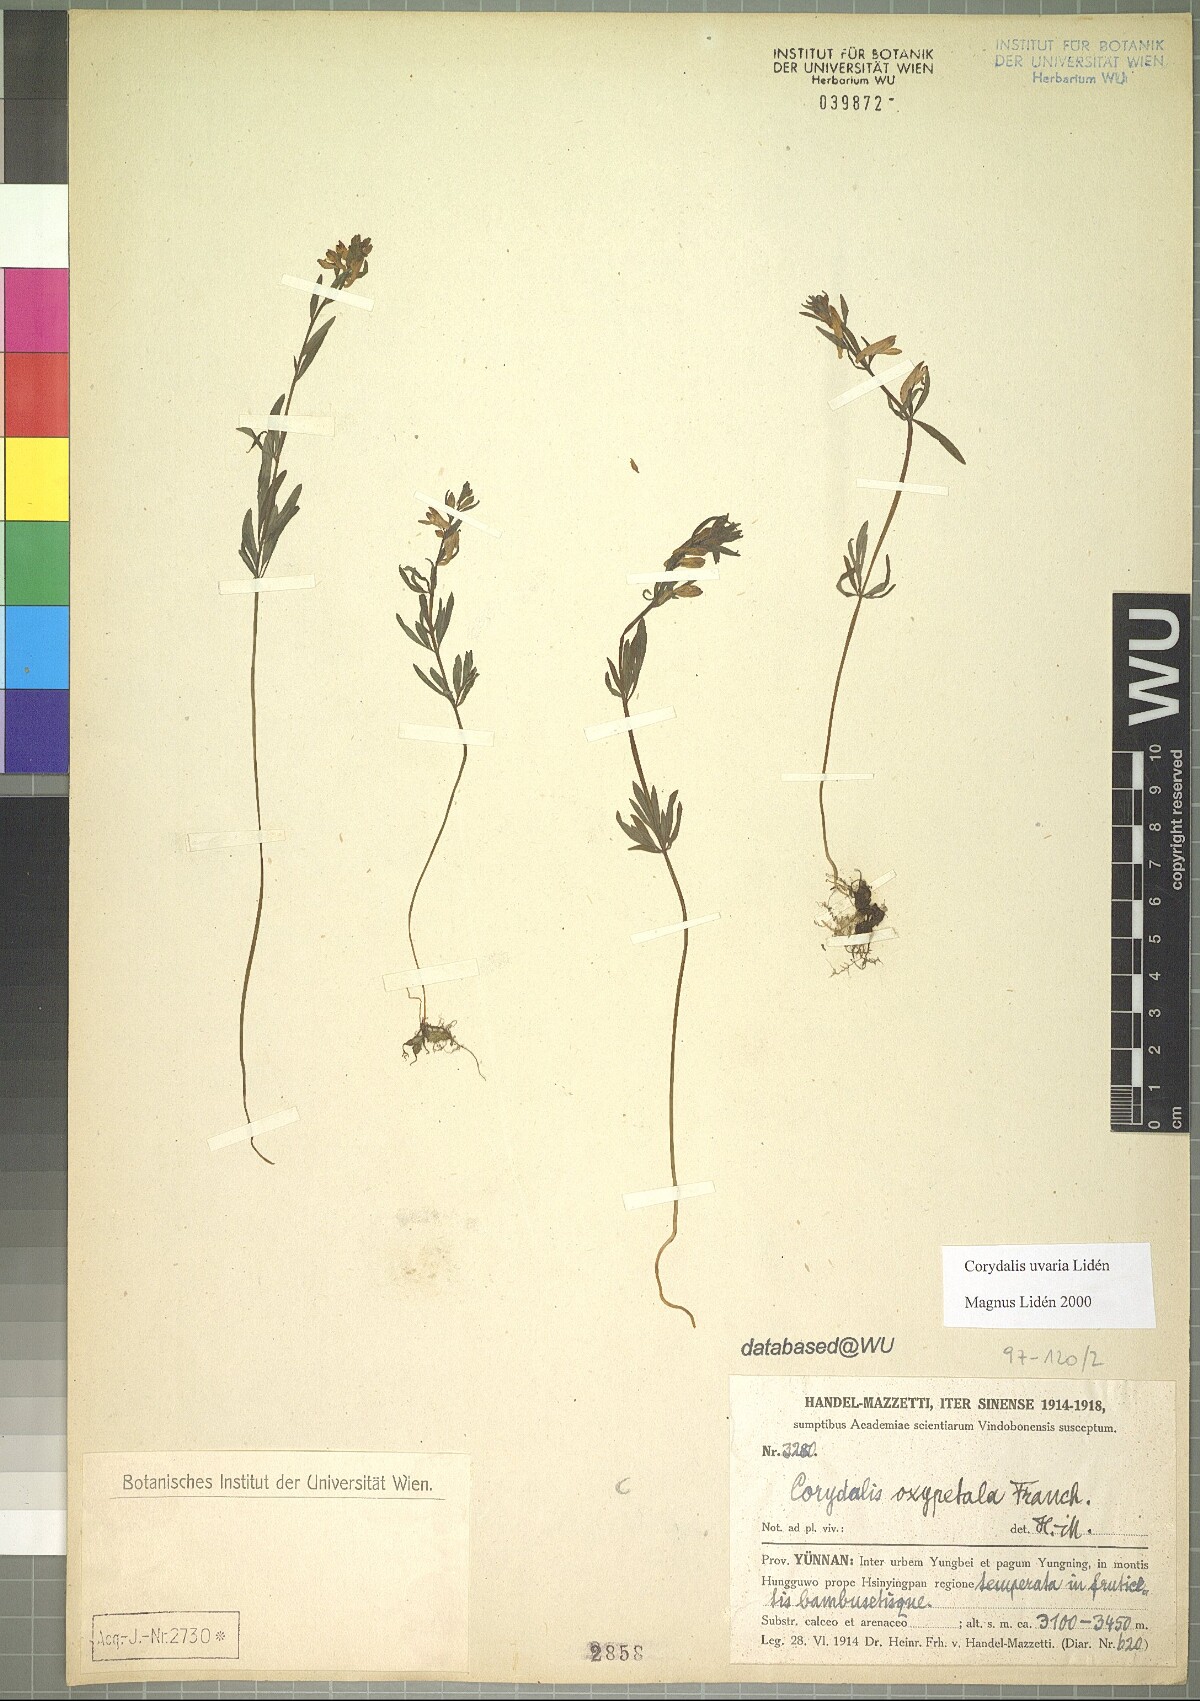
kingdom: Plantae
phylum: Tracheophyta
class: Magnoliopsida
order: Ranunculales
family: Papaveraceae
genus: Corydalis
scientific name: Corydalis uvaria
